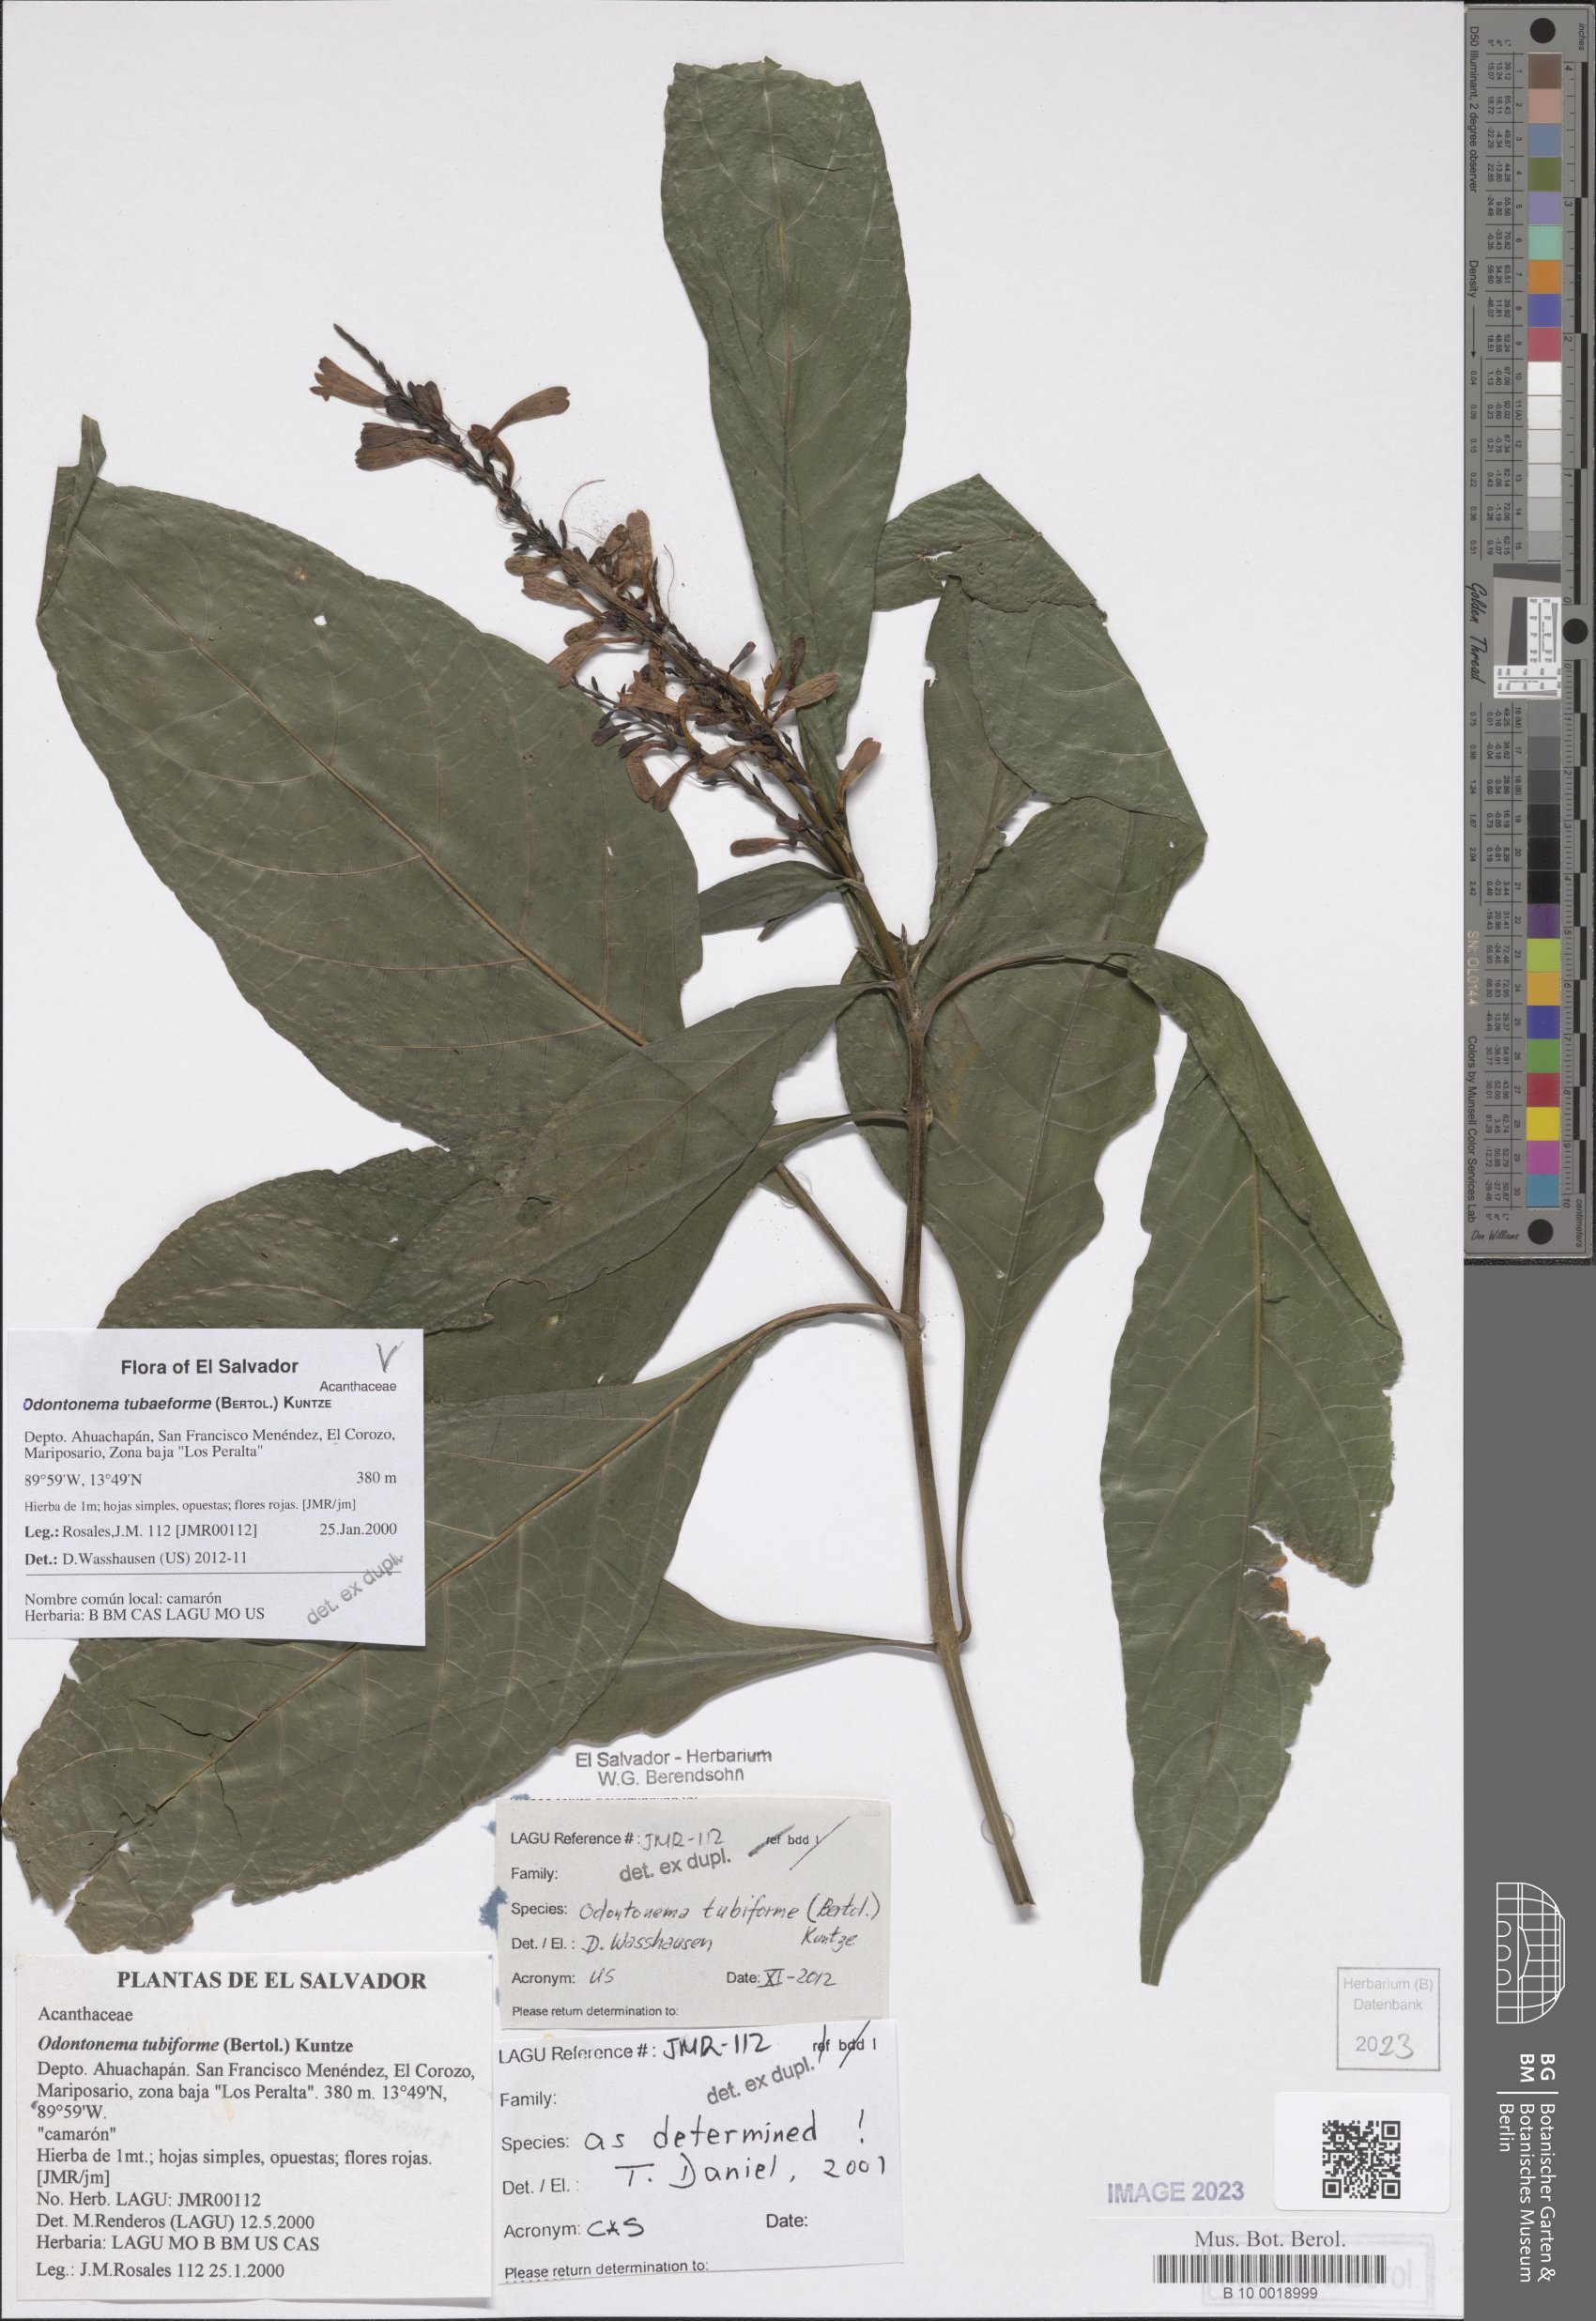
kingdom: Plantae
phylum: Tracheophyta
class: Magnoliopsida
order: Lamiales
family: Acanthaceae
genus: Odontonema
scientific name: Odontonema tubaeforme
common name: Firespike
